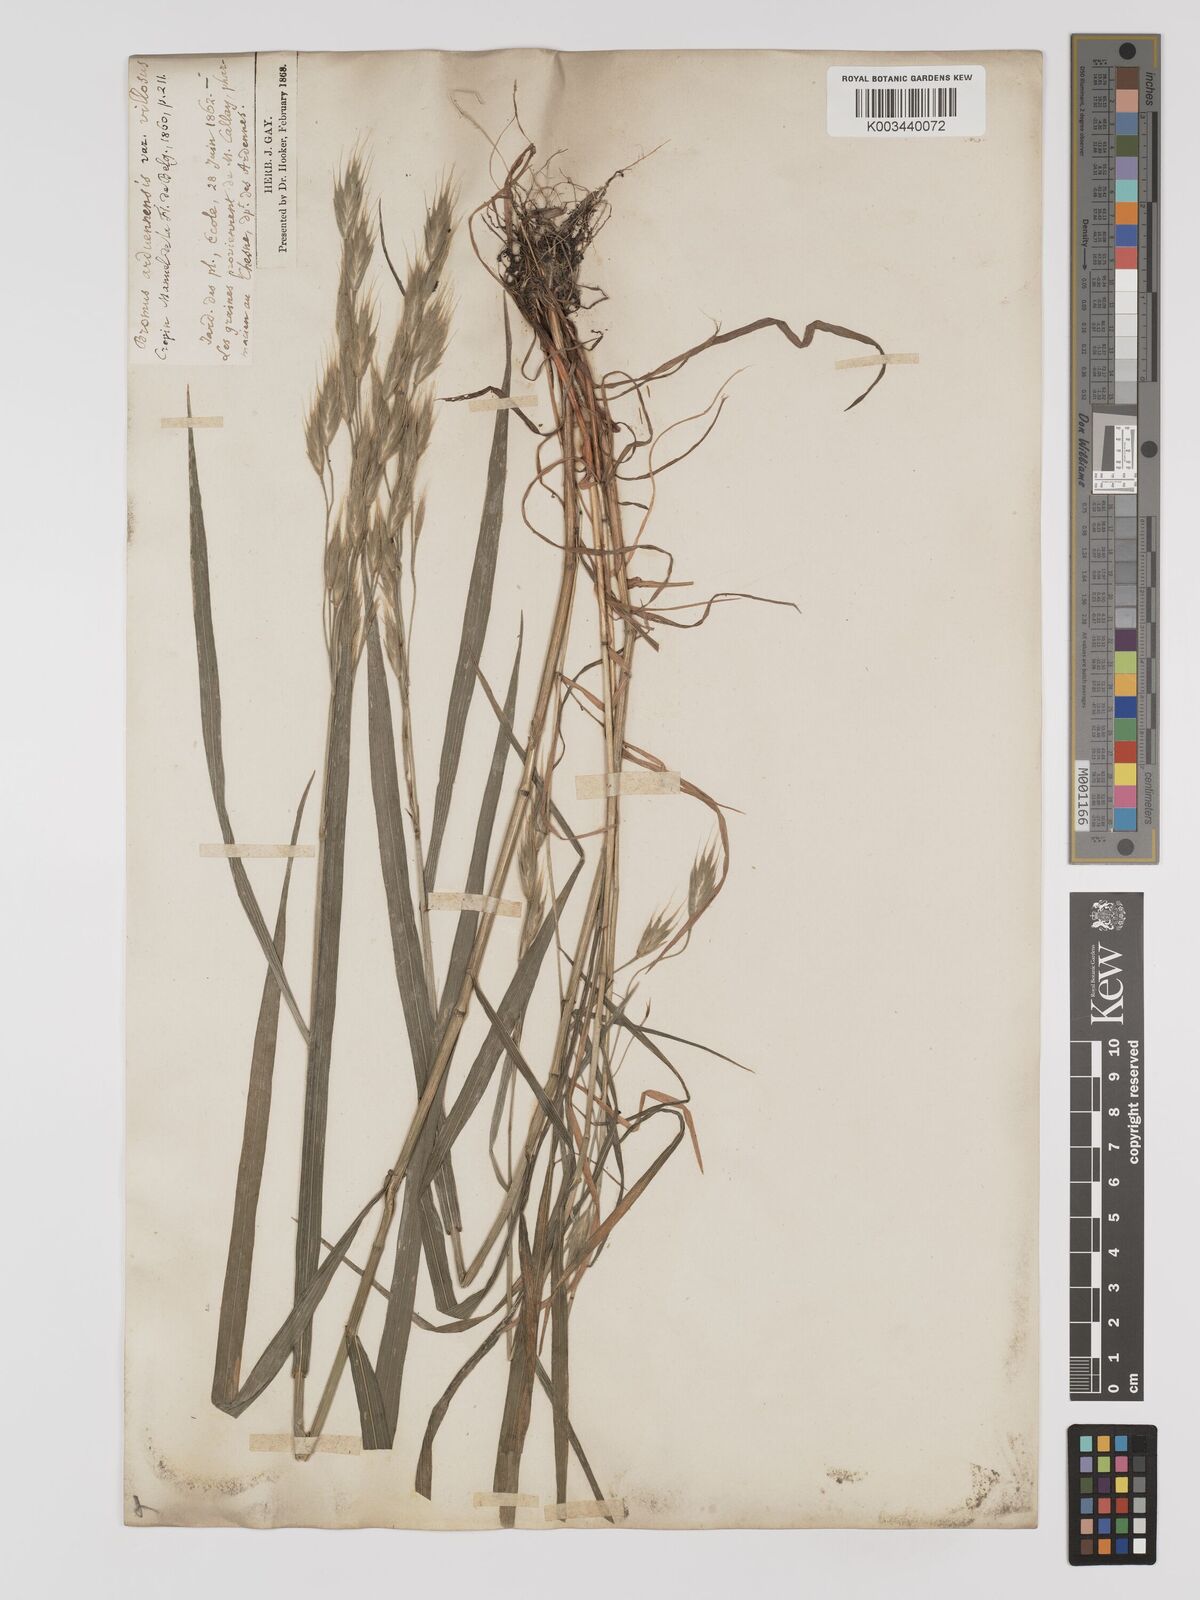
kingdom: Plantae
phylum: Tracheophyta
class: Liliopsida
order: Poales
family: Poaceae
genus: Bromus
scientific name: Bromus bromoideus
